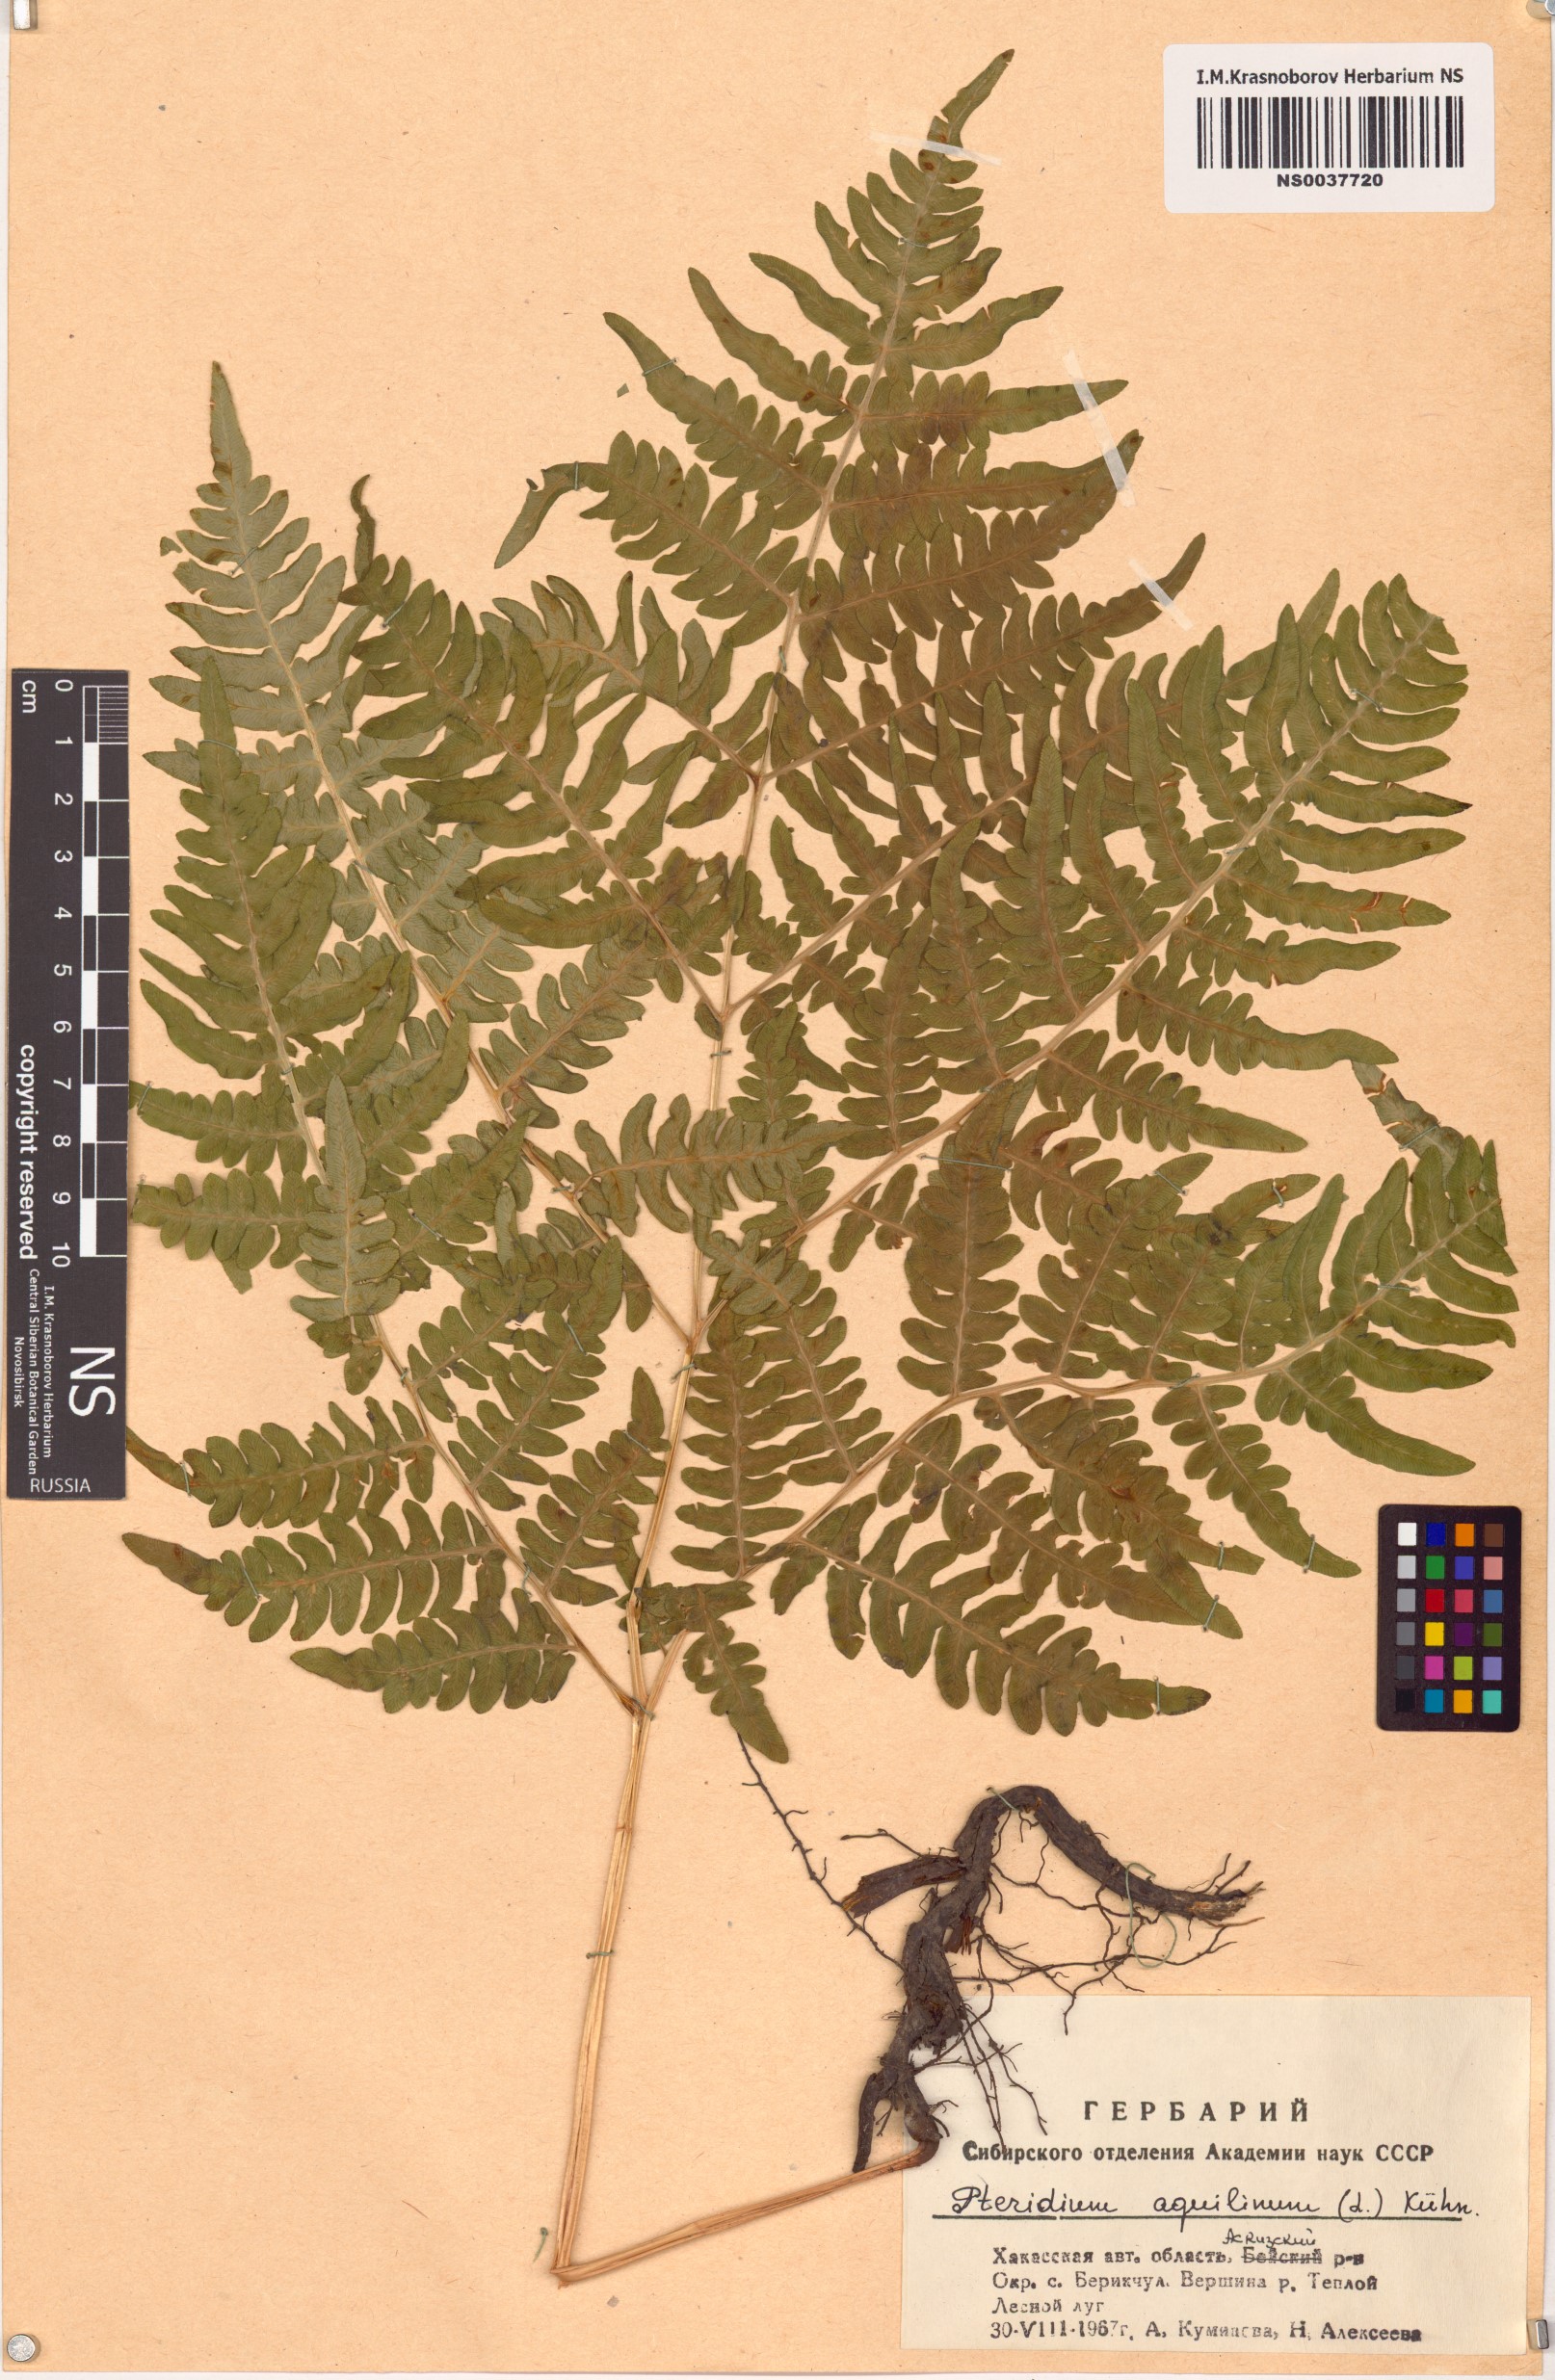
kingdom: Plantae
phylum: Tracheophyta
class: Polypodiopsida
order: Polypodiales
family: Dennstaedtiaceae
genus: Pteridium
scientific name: Pteridium aquilinum
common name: Bracken
